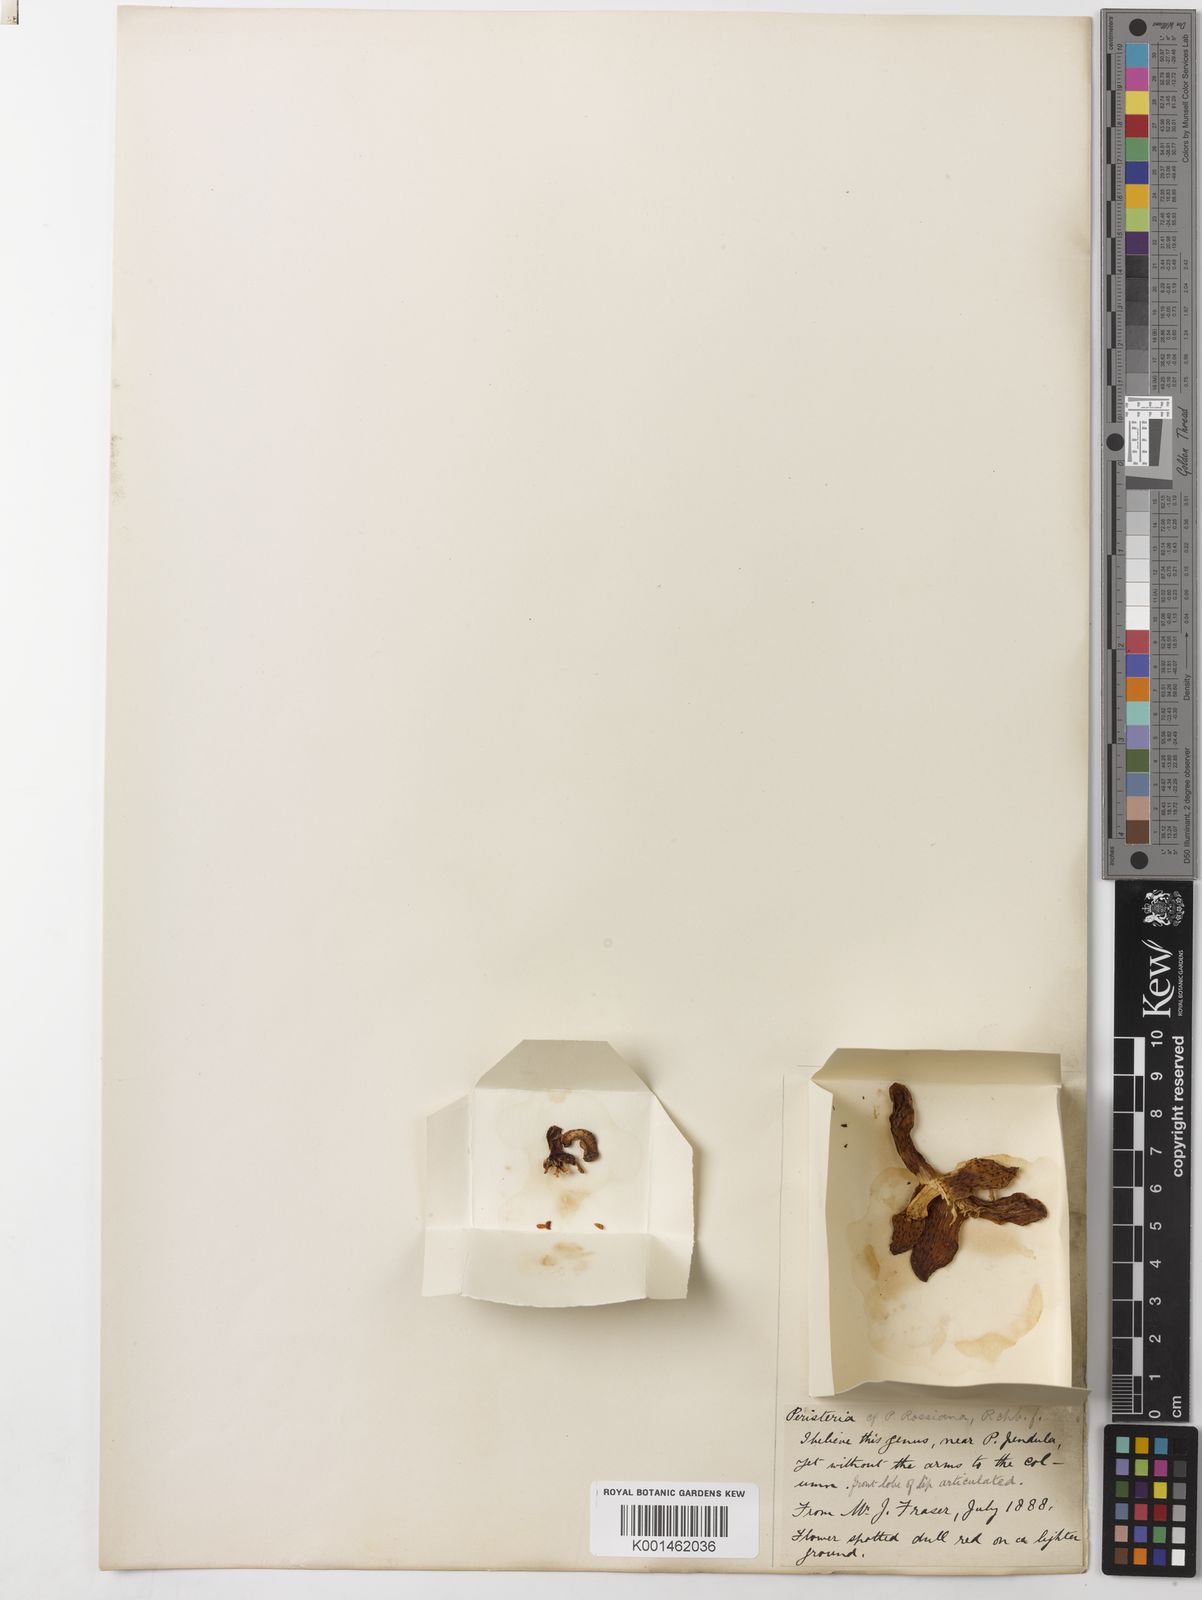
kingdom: Plantae
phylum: Tracheophyta
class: Liliopsida
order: Asparagales
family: Orchidaceae
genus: Peristeria
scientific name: Peristeria pendula
